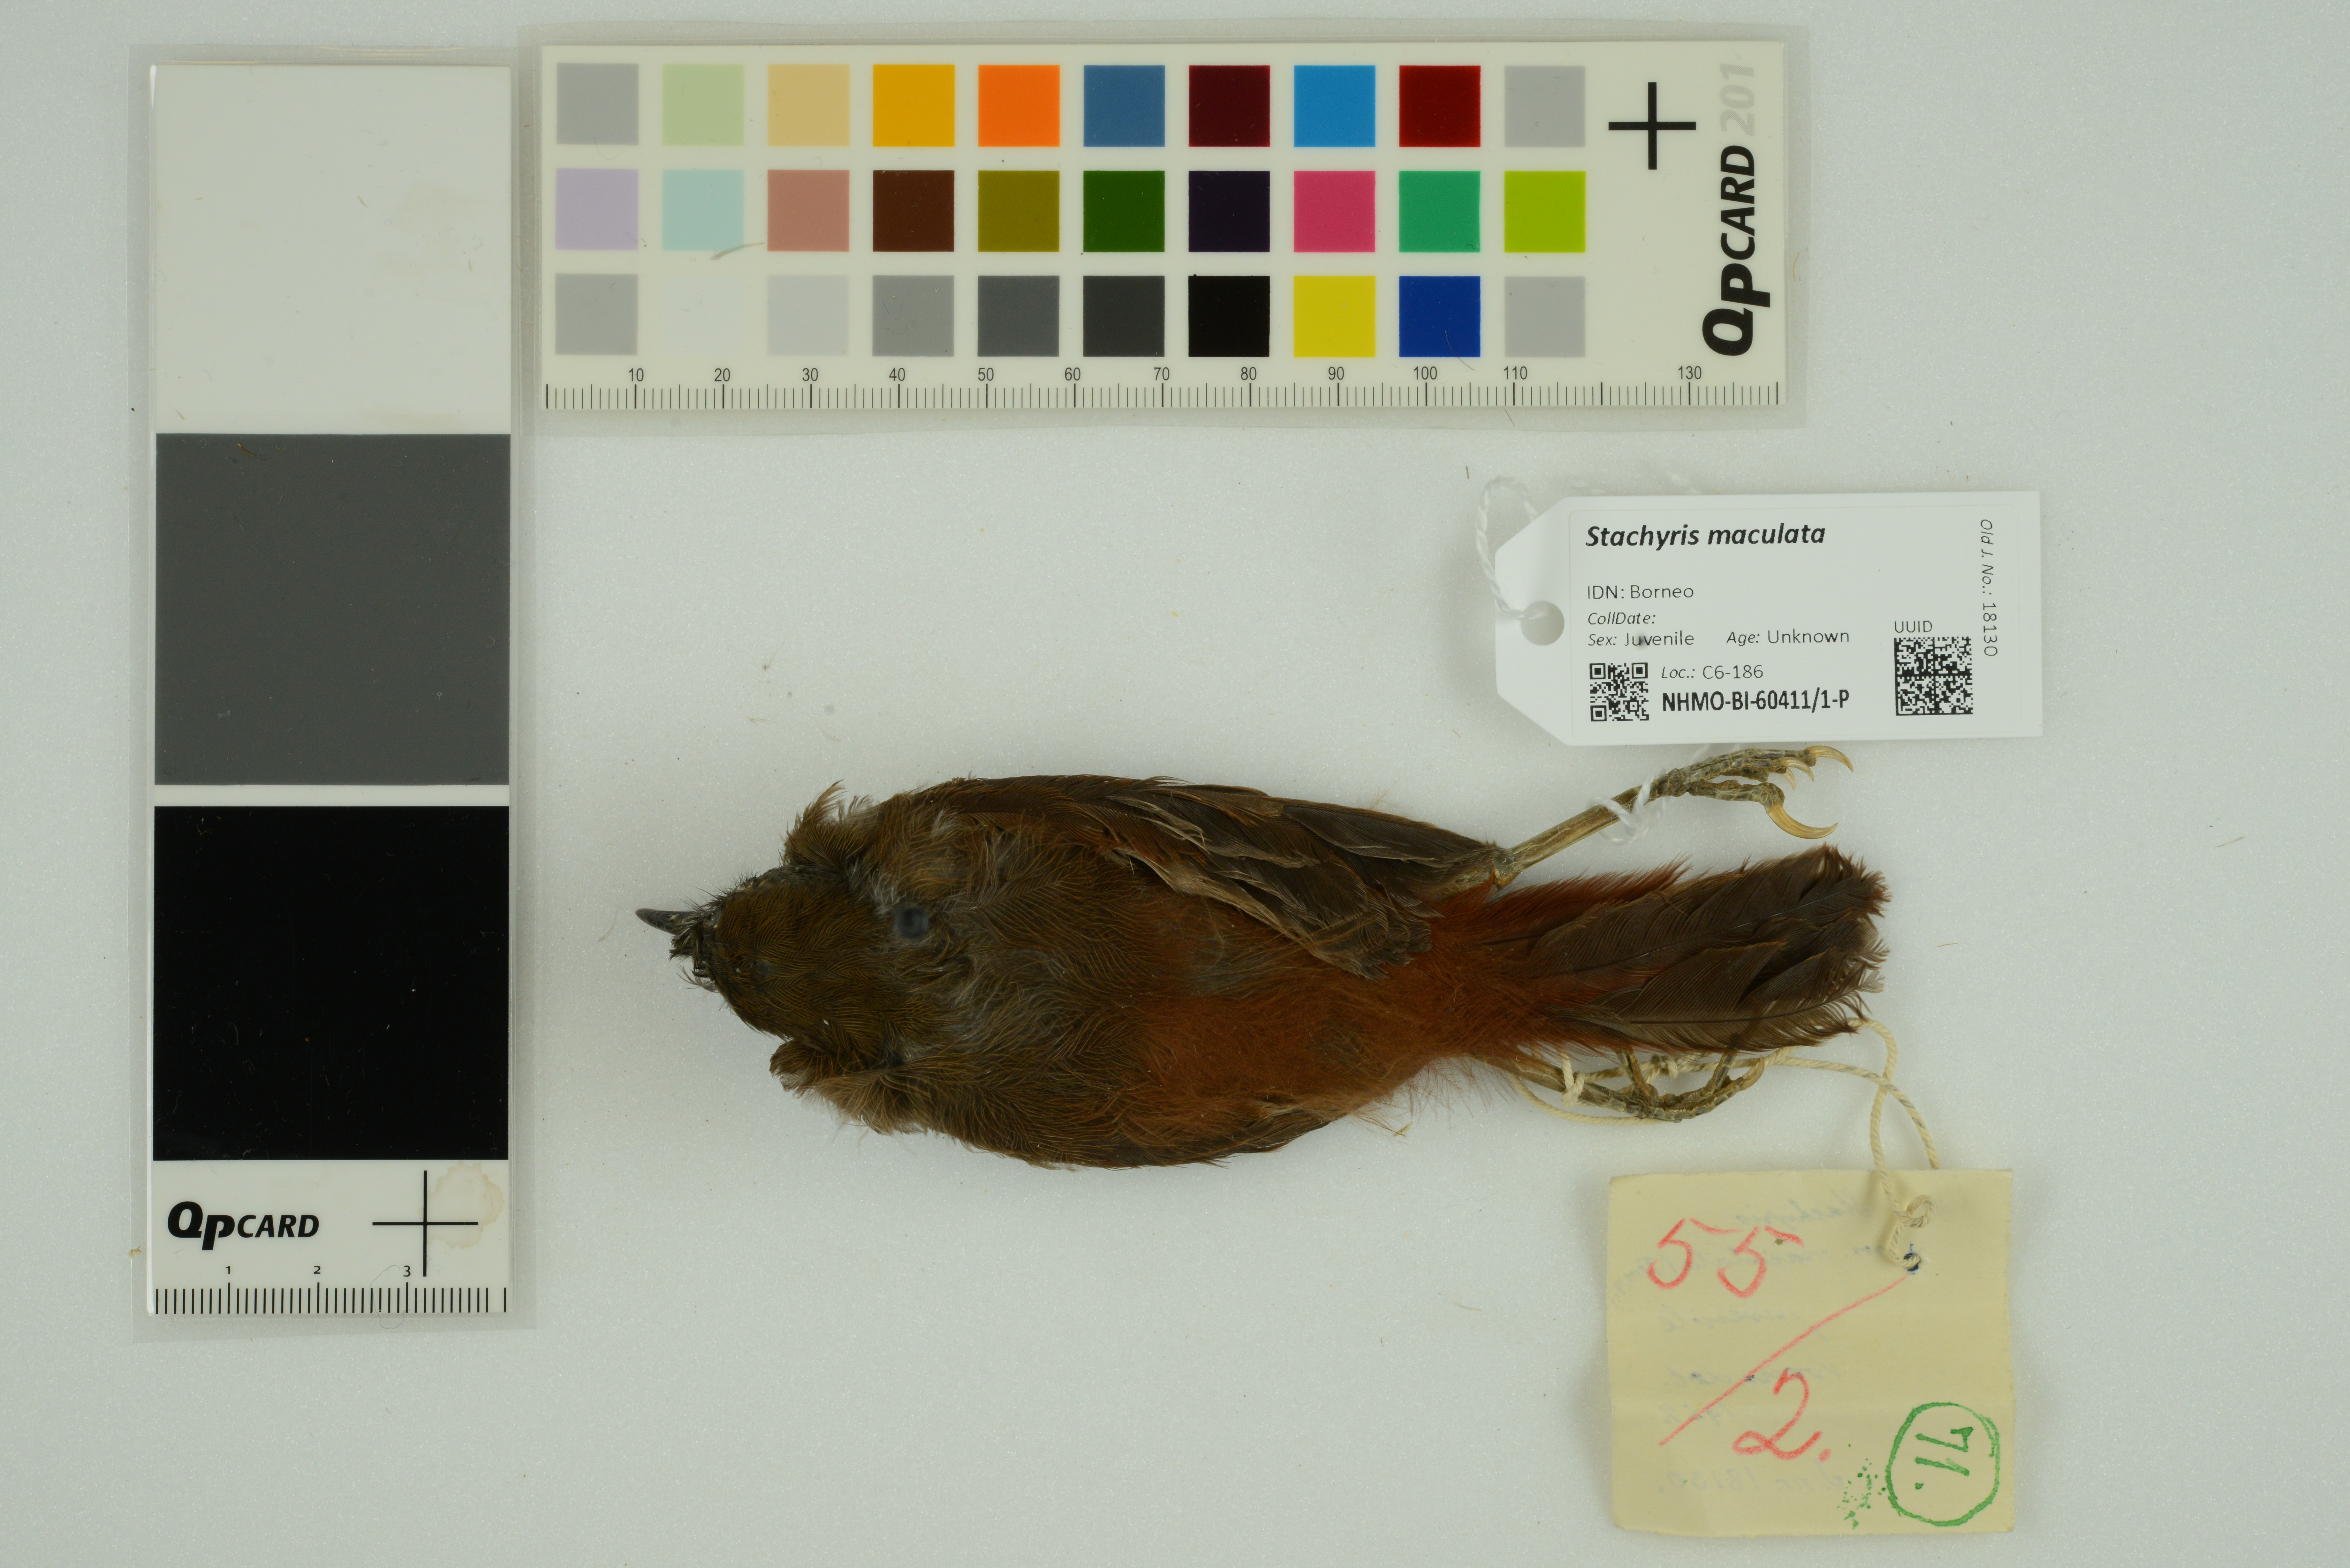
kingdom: Animalia
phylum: Chordata
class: Aves
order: Passeriformes
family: Timaliidae
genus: Stachyris
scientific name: Stachyris maculata
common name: Chestnut-rumped babbler
